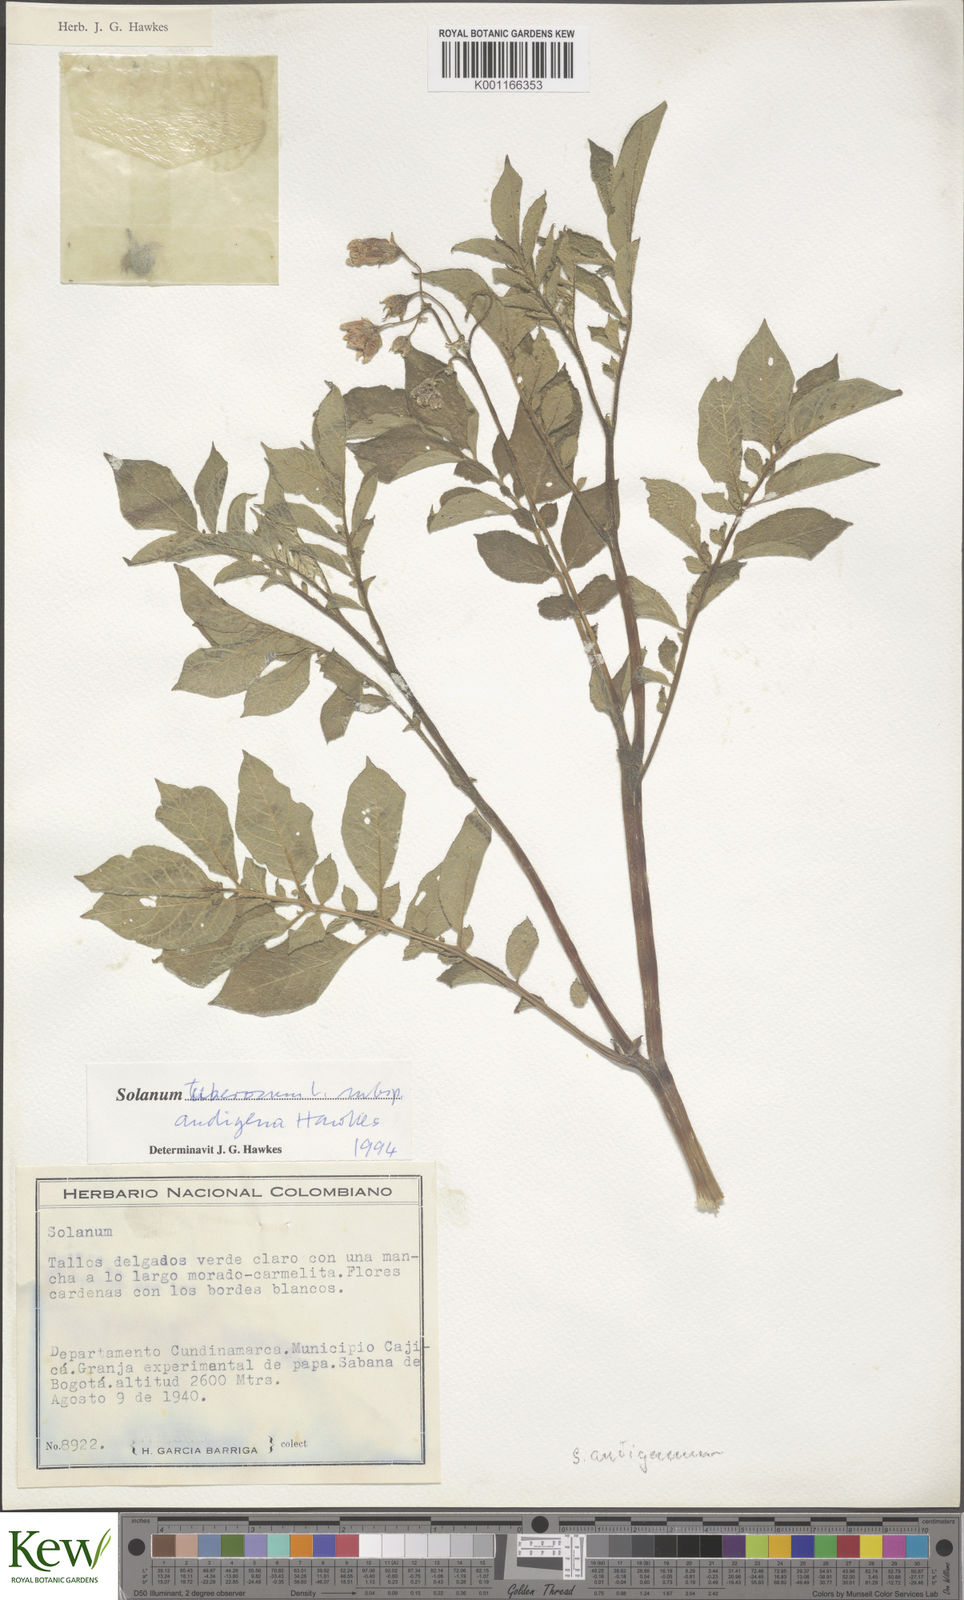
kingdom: Plantae
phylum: Tracheophyta
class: Magnoliopsida
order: Solanales
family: Solanaceae
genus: Solanum
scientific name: Solanum tuberosum
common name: Potato
